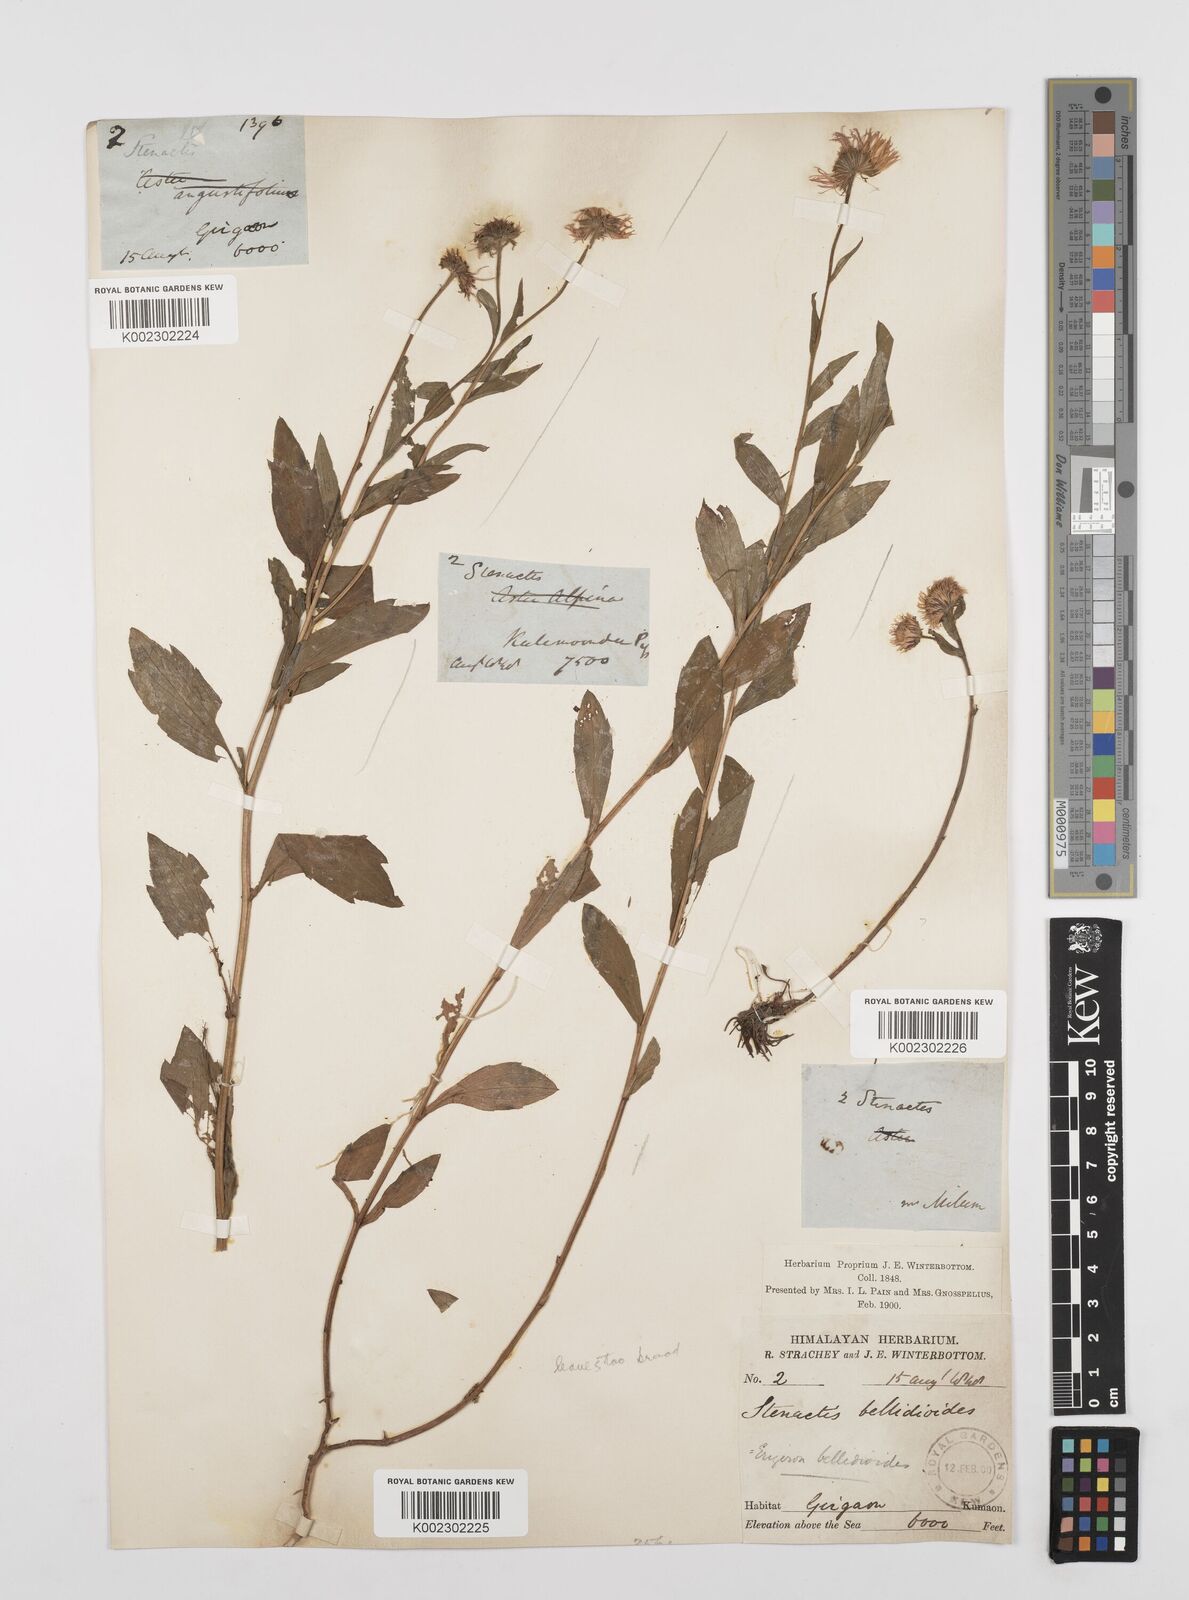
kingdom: Plantae
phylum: Tracheophyta
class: Magnoliopsida
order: Asterales
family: Asteraceae
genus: Erigeron
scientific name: Erigeron acris
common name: Blue fleabane
